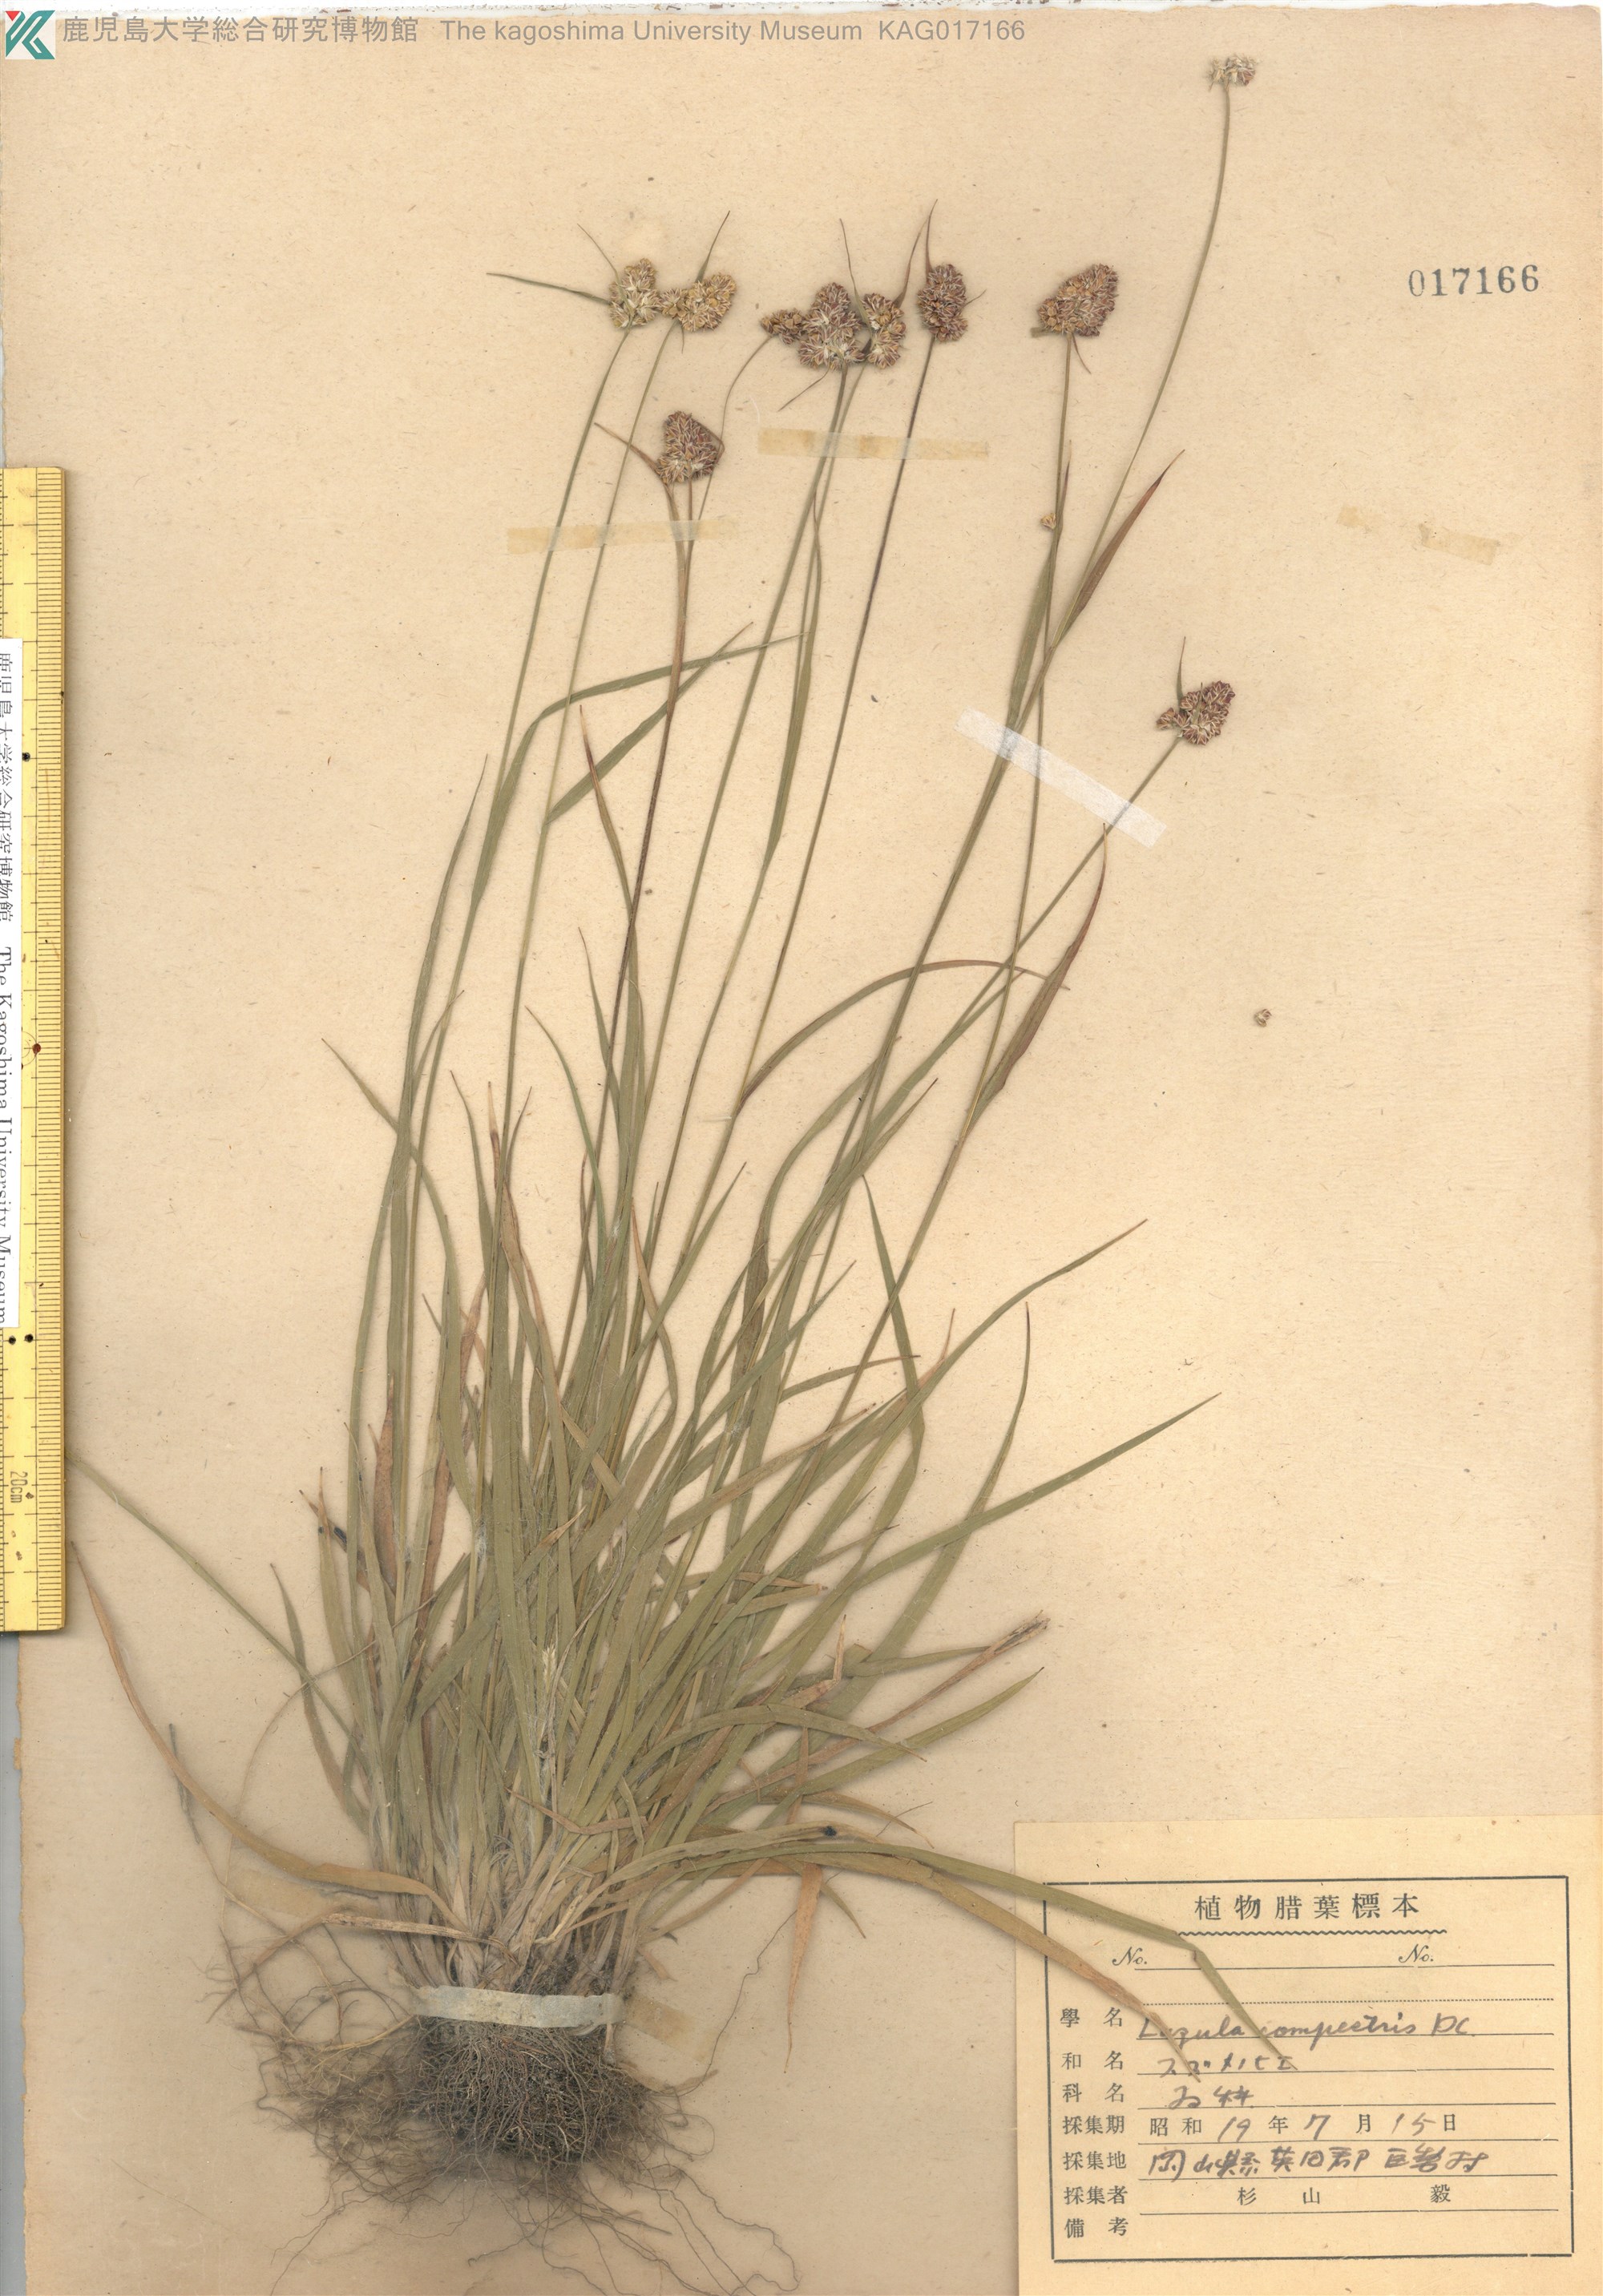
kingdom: Plantae
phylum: Tracheophyta
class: Liliopsida
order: Poales
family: Juncaceae
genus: Luzula
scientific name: Luzula capitata
